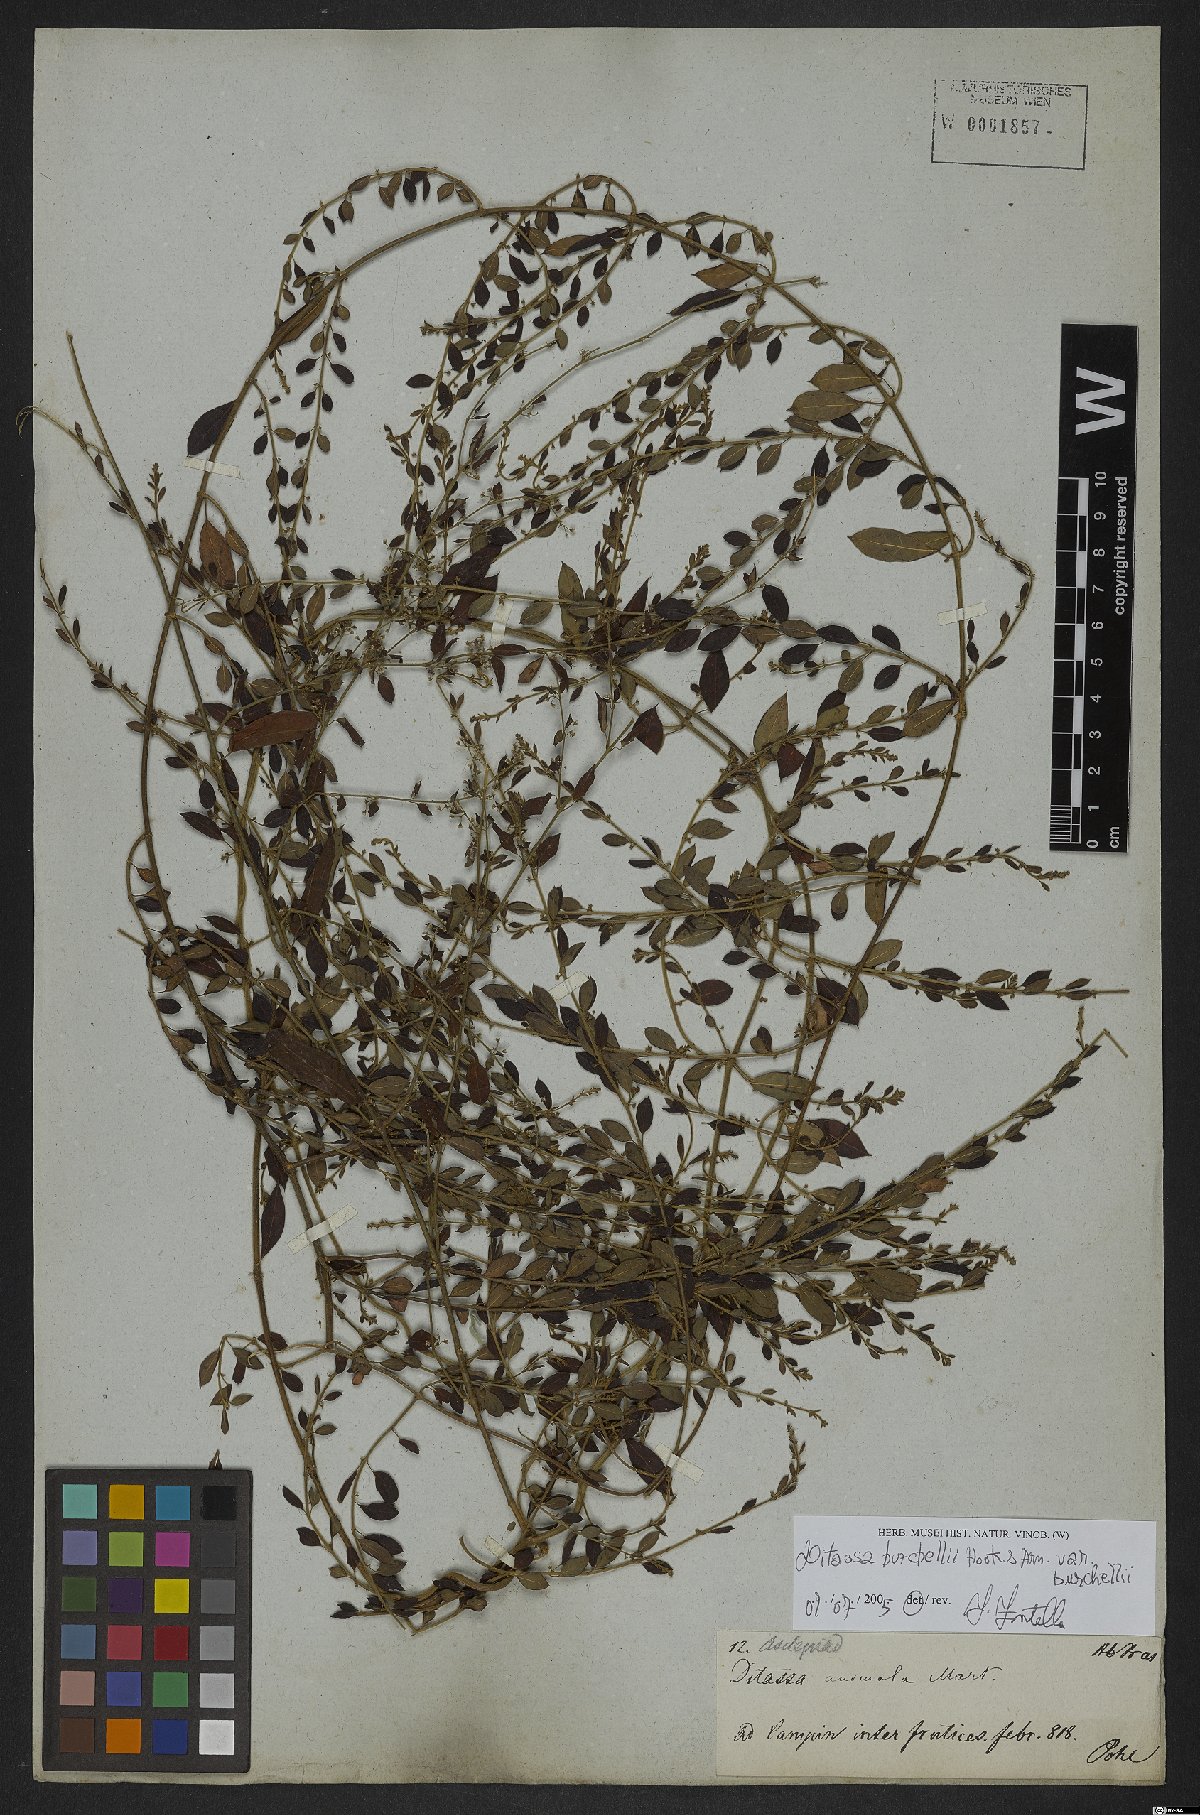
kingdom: Plantae
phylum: Tracheophyta
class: Magnoliopsida
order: Gentianales
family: Apocynaceae
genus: Metastelma
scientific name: Metastelma burchellii
